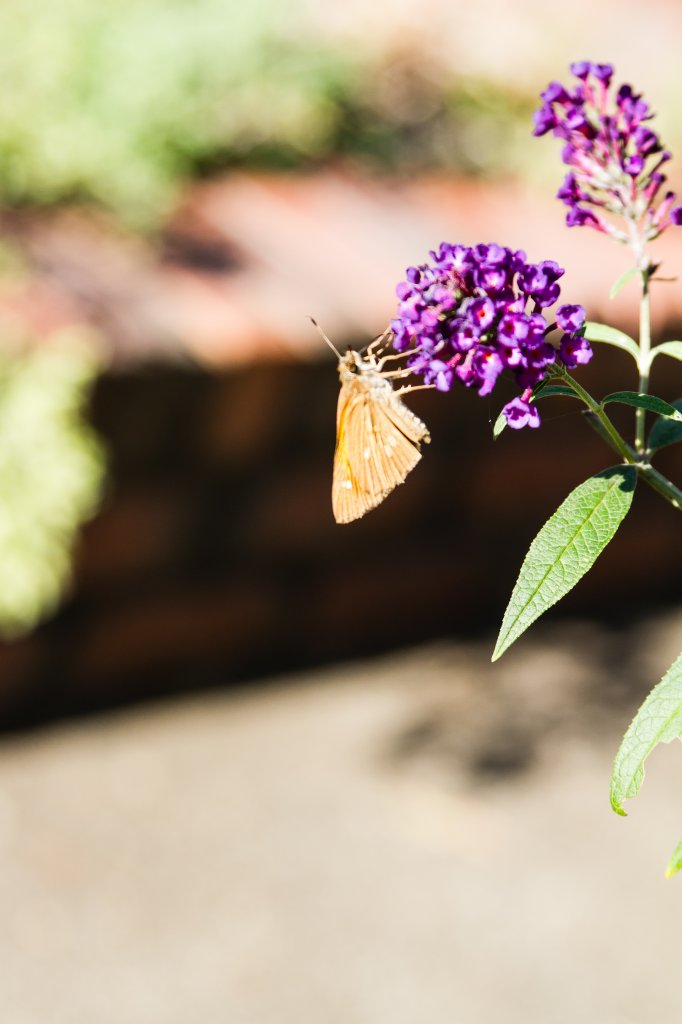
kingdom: Animalia
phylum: Arthropoda
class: Insecta
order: Lepidoptera
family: Hesperiidae
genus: Poanes
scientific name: Poanes viator
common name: Broad-winged Skipper
